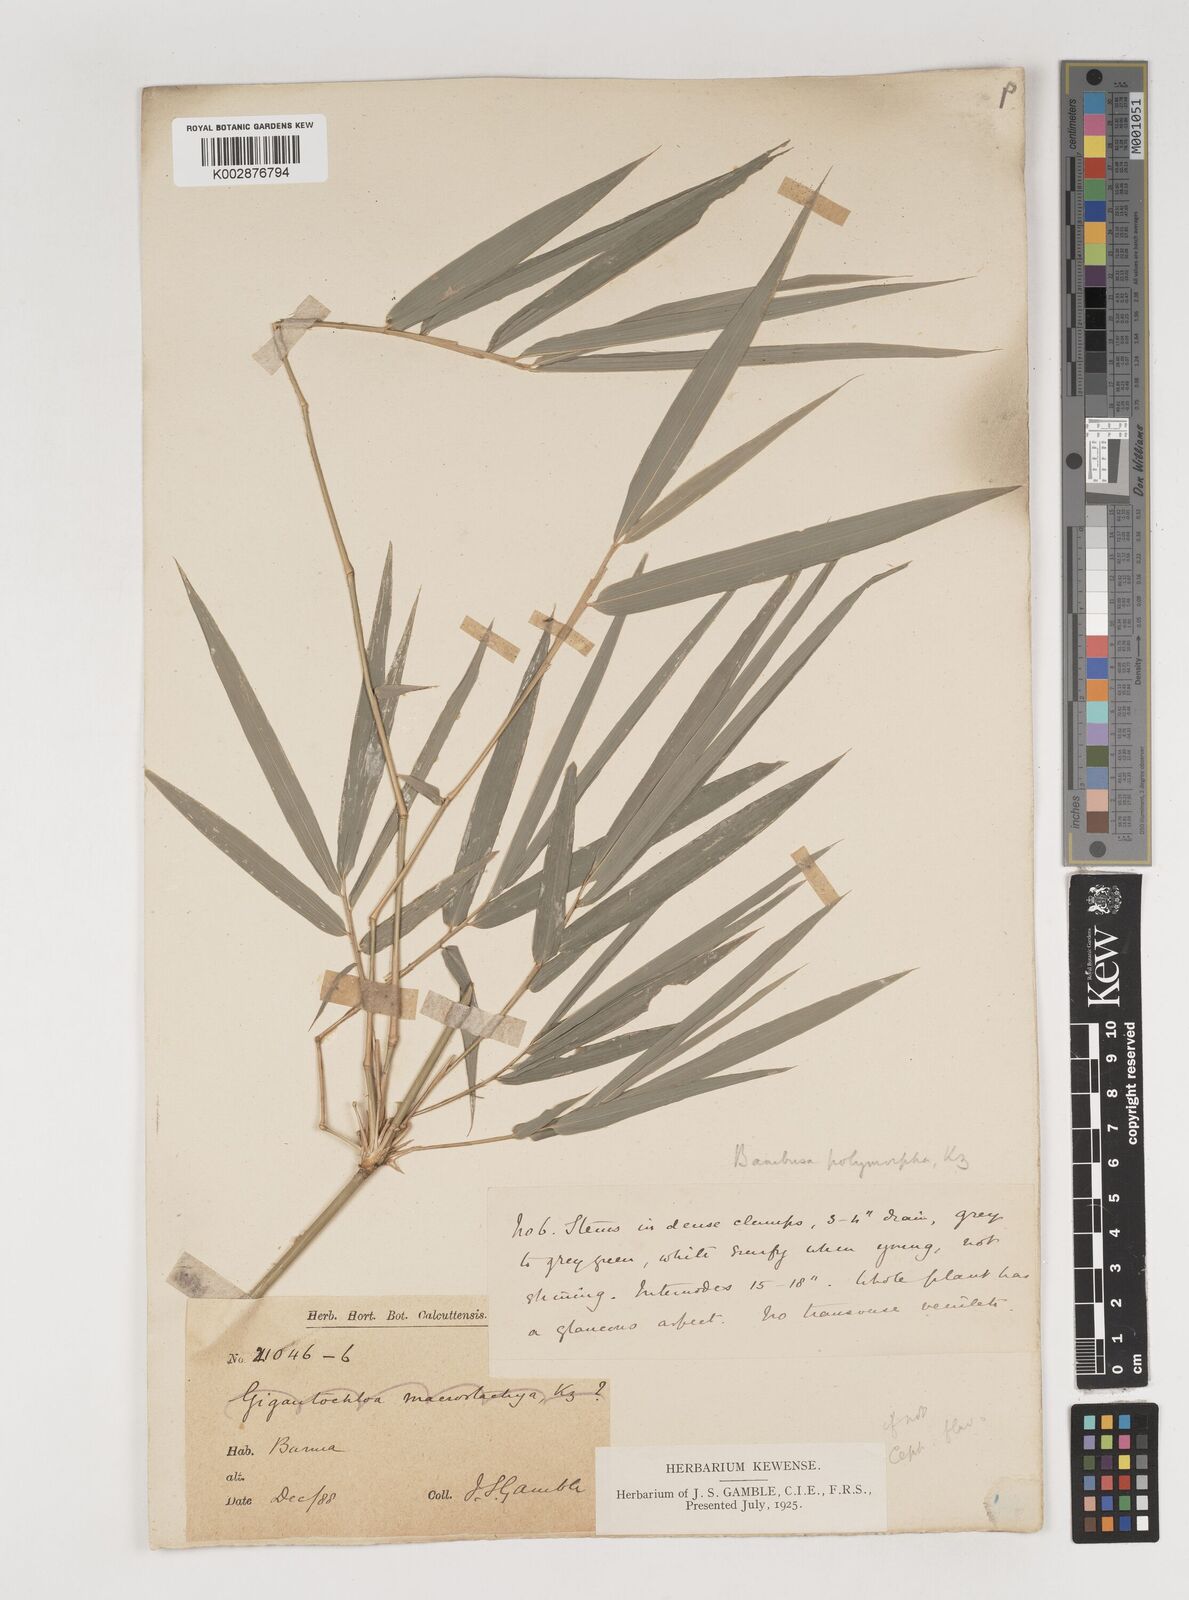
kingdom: Plantae
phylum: Tracheophyta
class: Liliopsida
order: Poales
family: Poaceae
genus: Bambusa
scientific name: Bambusa polymorpha
